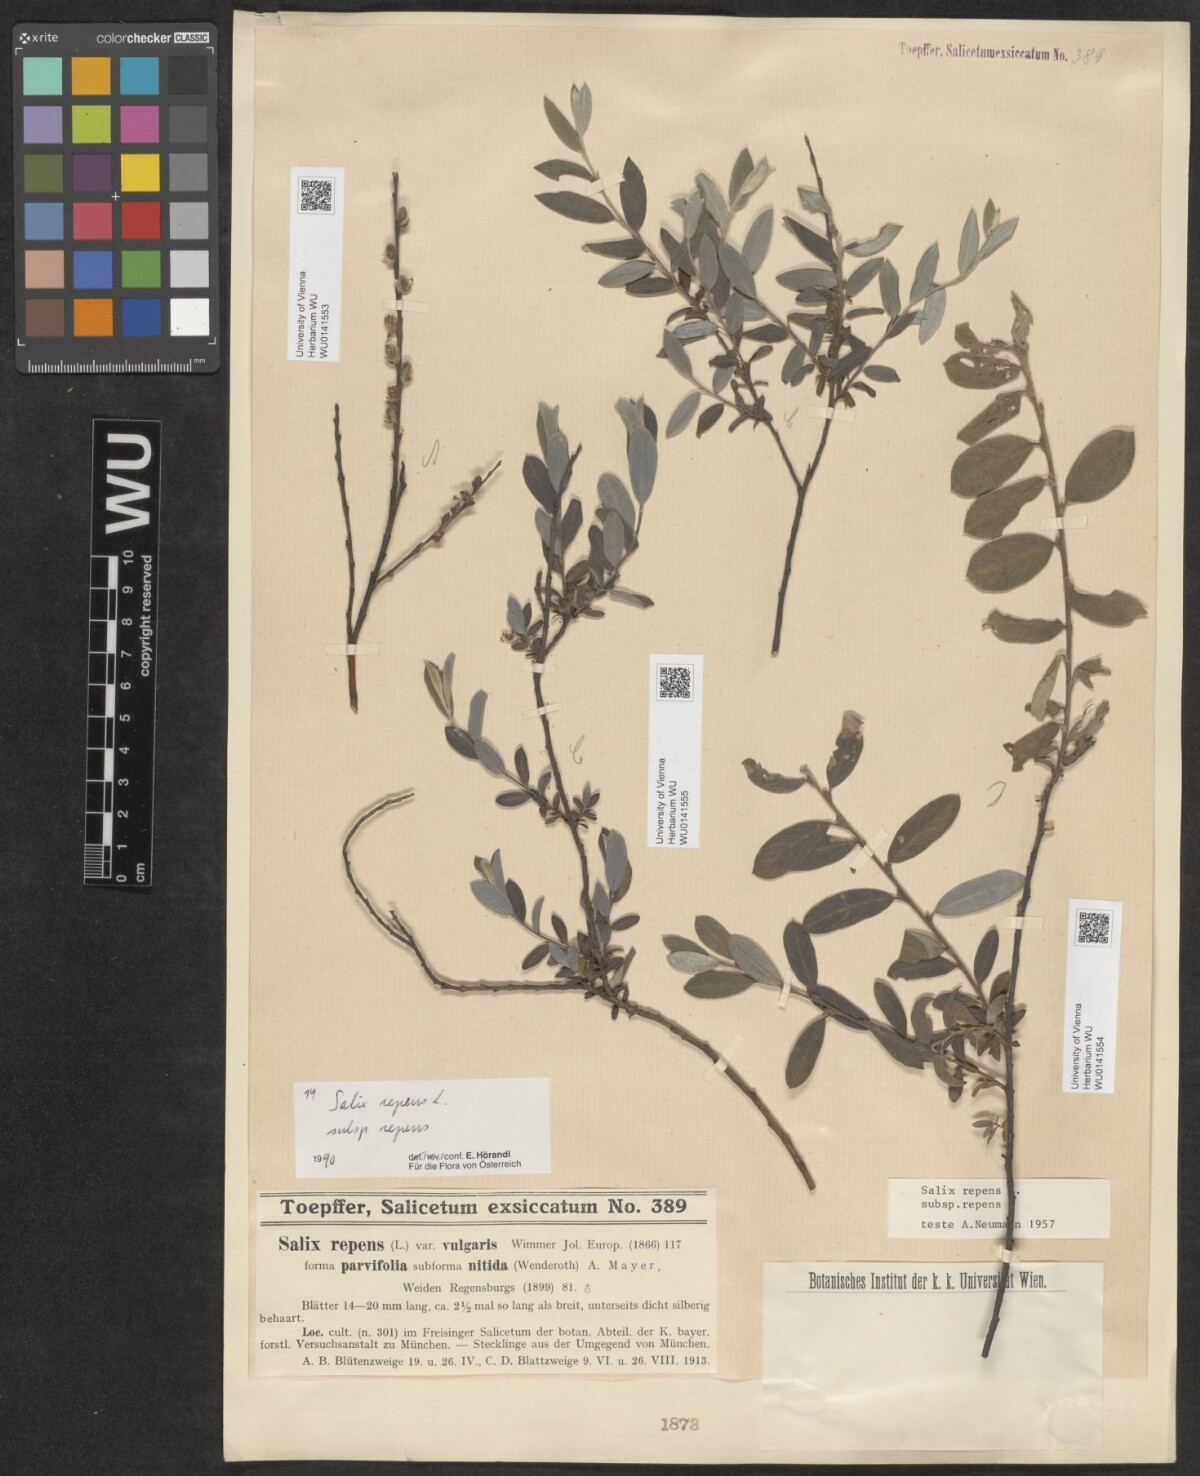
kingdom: Plantae
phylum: Tracheophyta
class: Magnoliopsida
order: Malpighiales
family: Salicaceae
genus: Salix
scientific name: Salix repens
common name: Creeping willow
